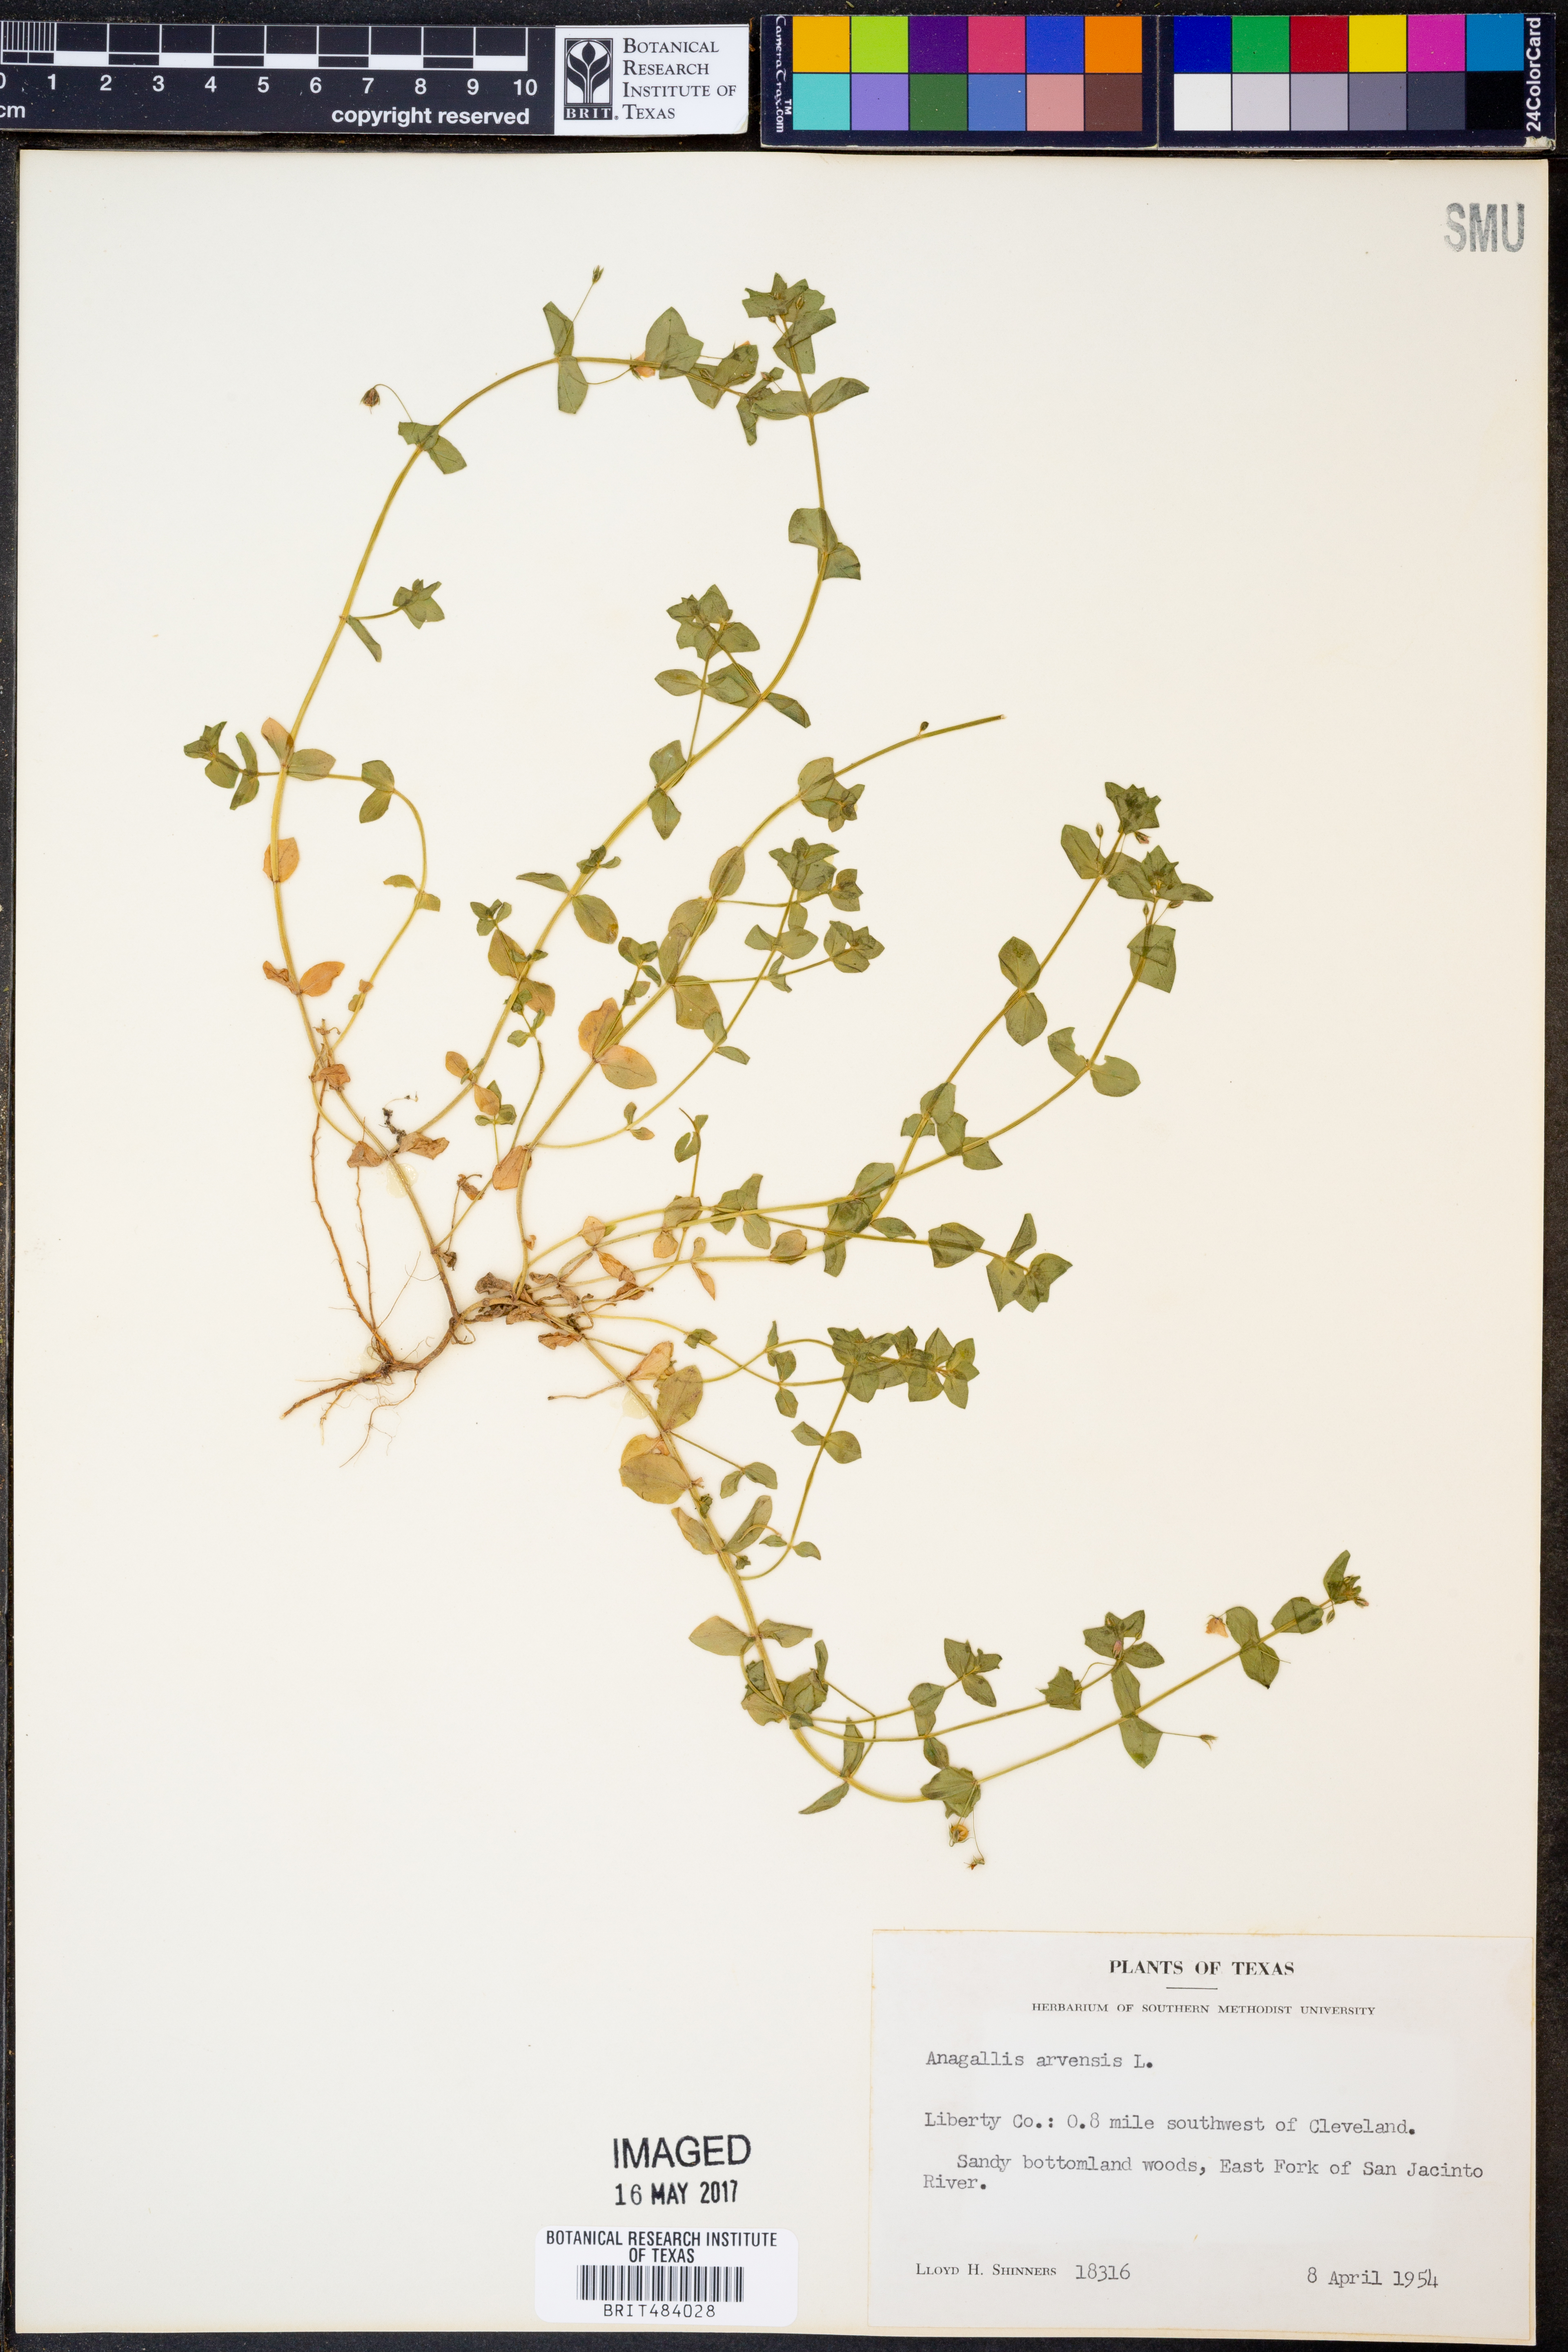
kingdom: Plantae
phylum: Tracheophyta
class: Magnoliopsida
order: Ericales
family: Primulaceae
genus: Lysimachia
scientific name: Lysimachia arvensis
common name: Scarlet pimpernel
